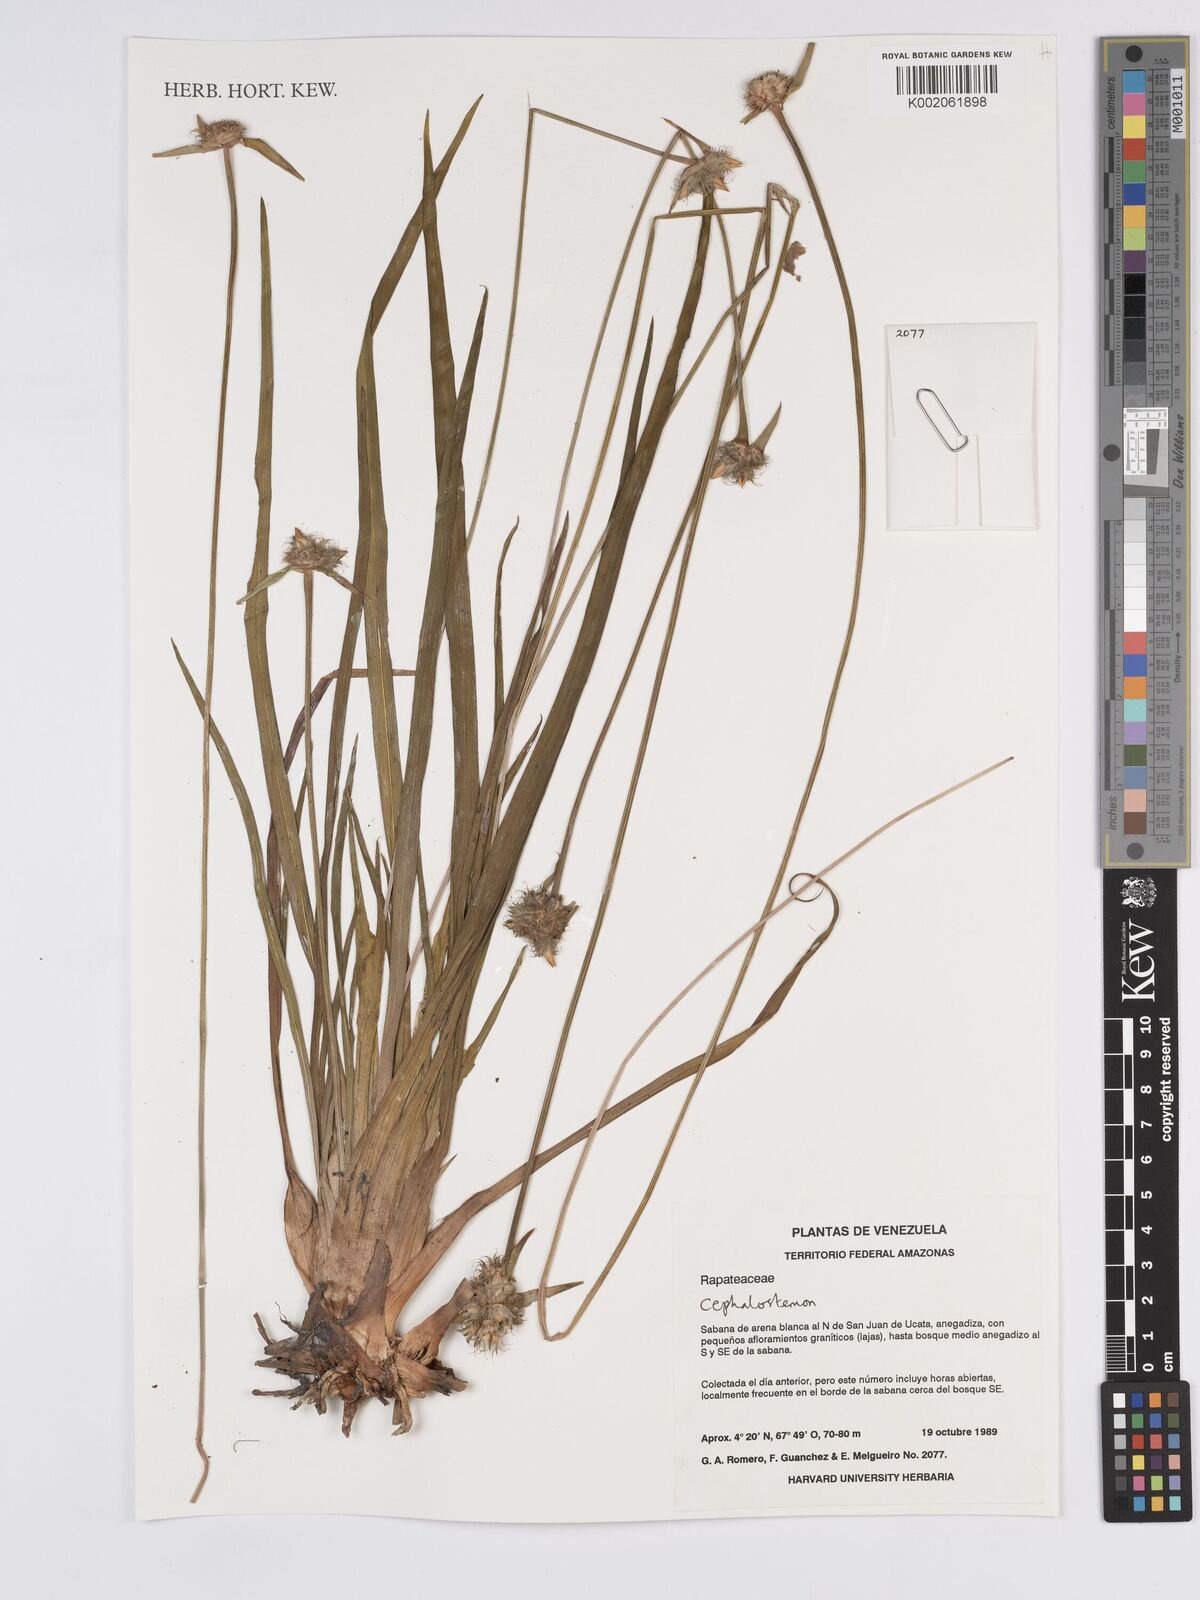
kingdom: Plantae
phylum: Tracheophyta
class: Liliopsida
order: Poales
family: Rapateaceae
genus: Cephalostemon
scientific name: Cephalostemon
